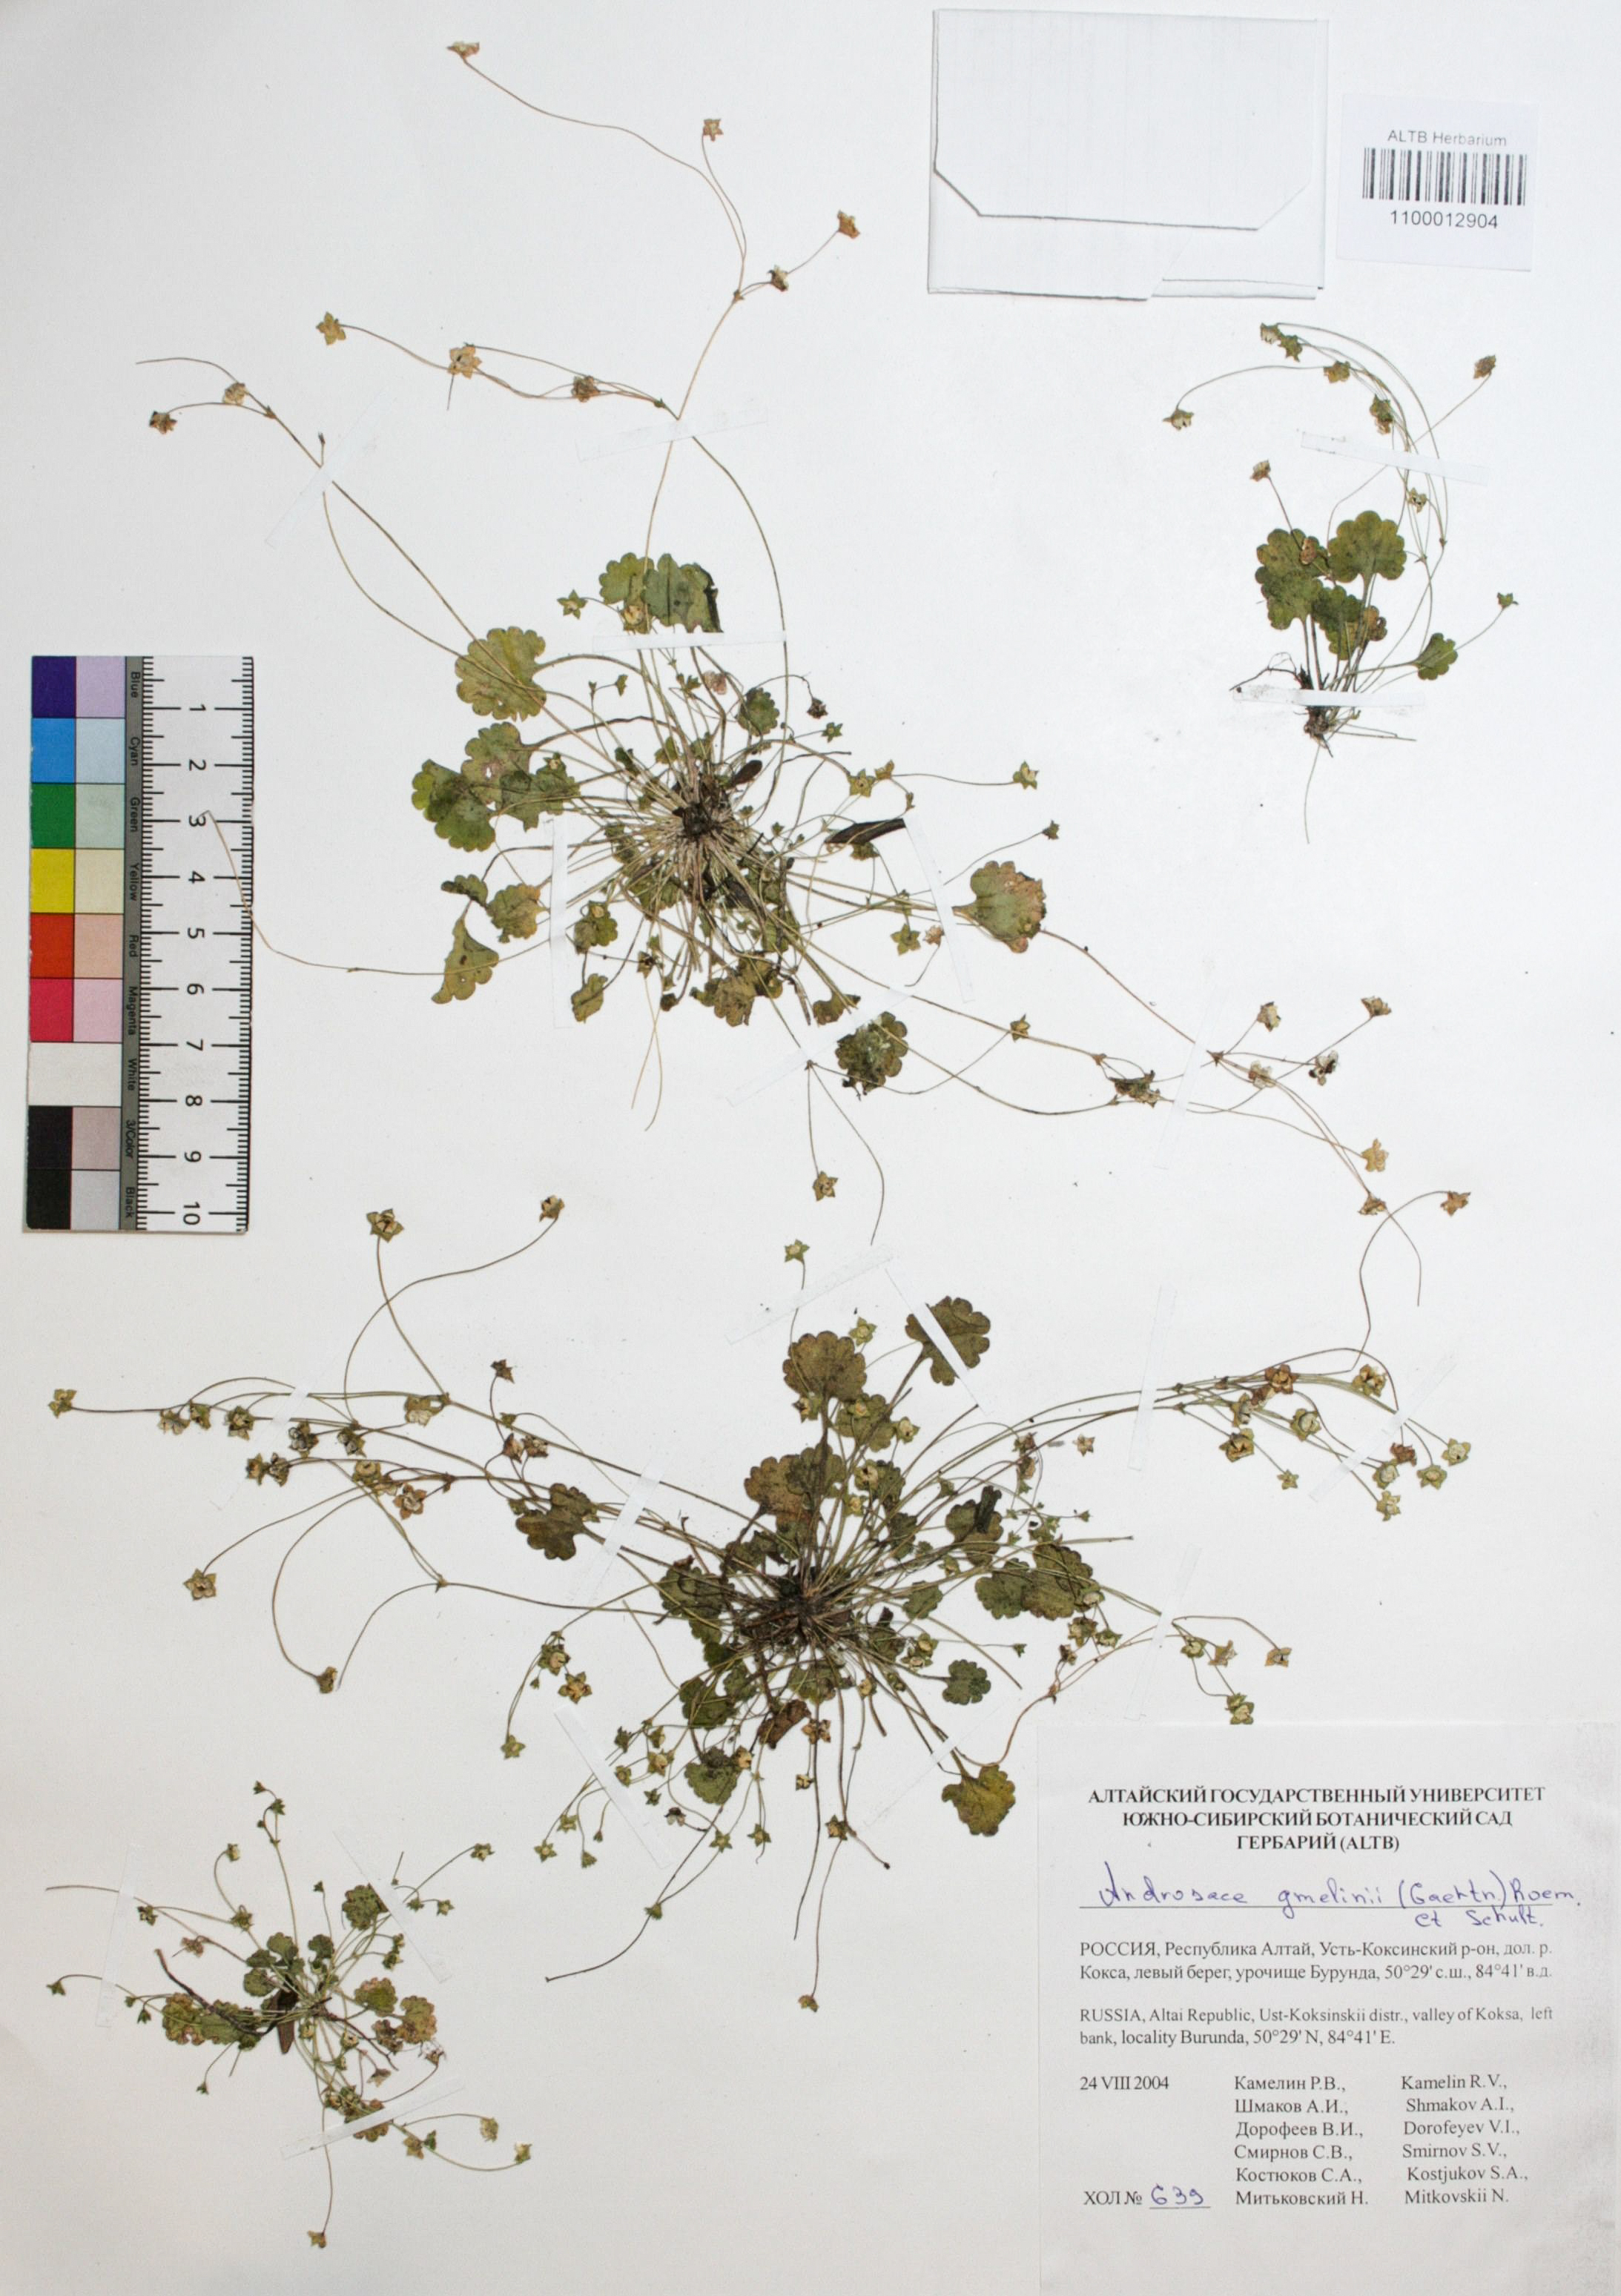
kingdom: Plantae
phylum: Tracheophyta
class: Magnoliopsida
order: Ericales
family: Primulaceae
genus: Androsace
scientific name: Androsace gmelinii
